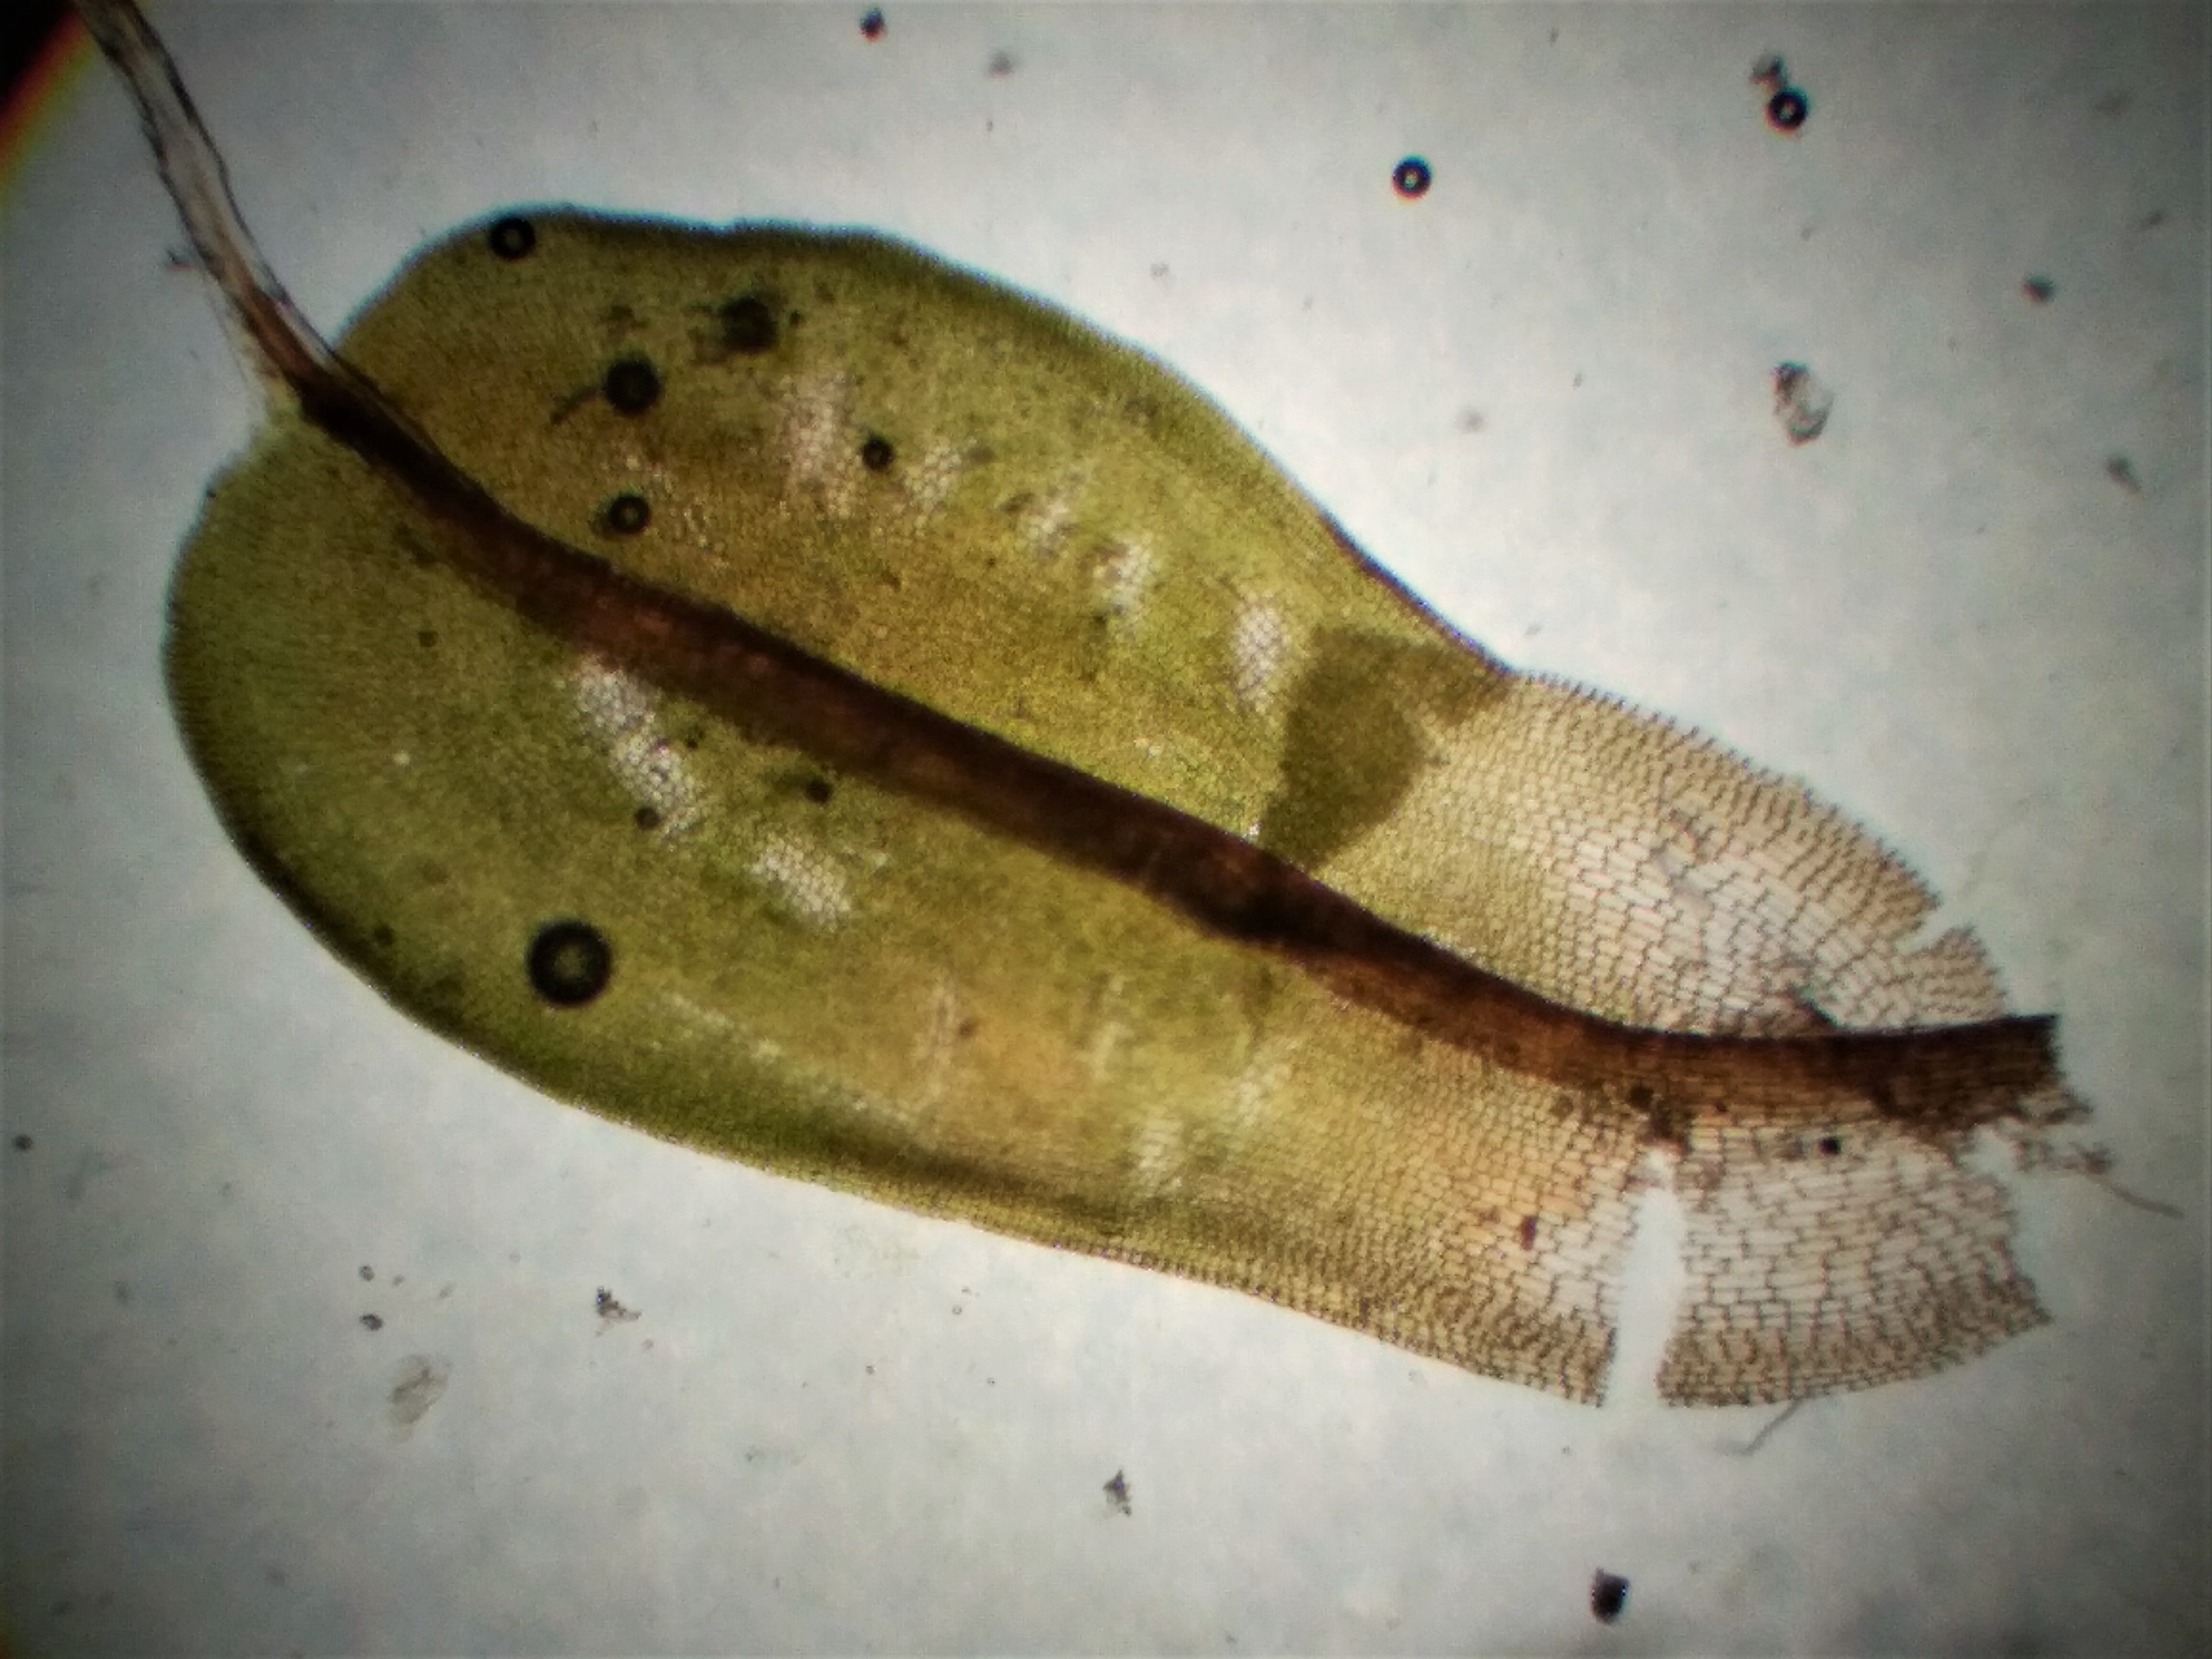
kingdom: Plantae
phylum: Bryophyta
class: Bryopsida
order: Pottiales
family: Pottiaceae
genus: Syntrichia
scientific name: Syntrichia virescens
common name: Grøn hårstjerne
